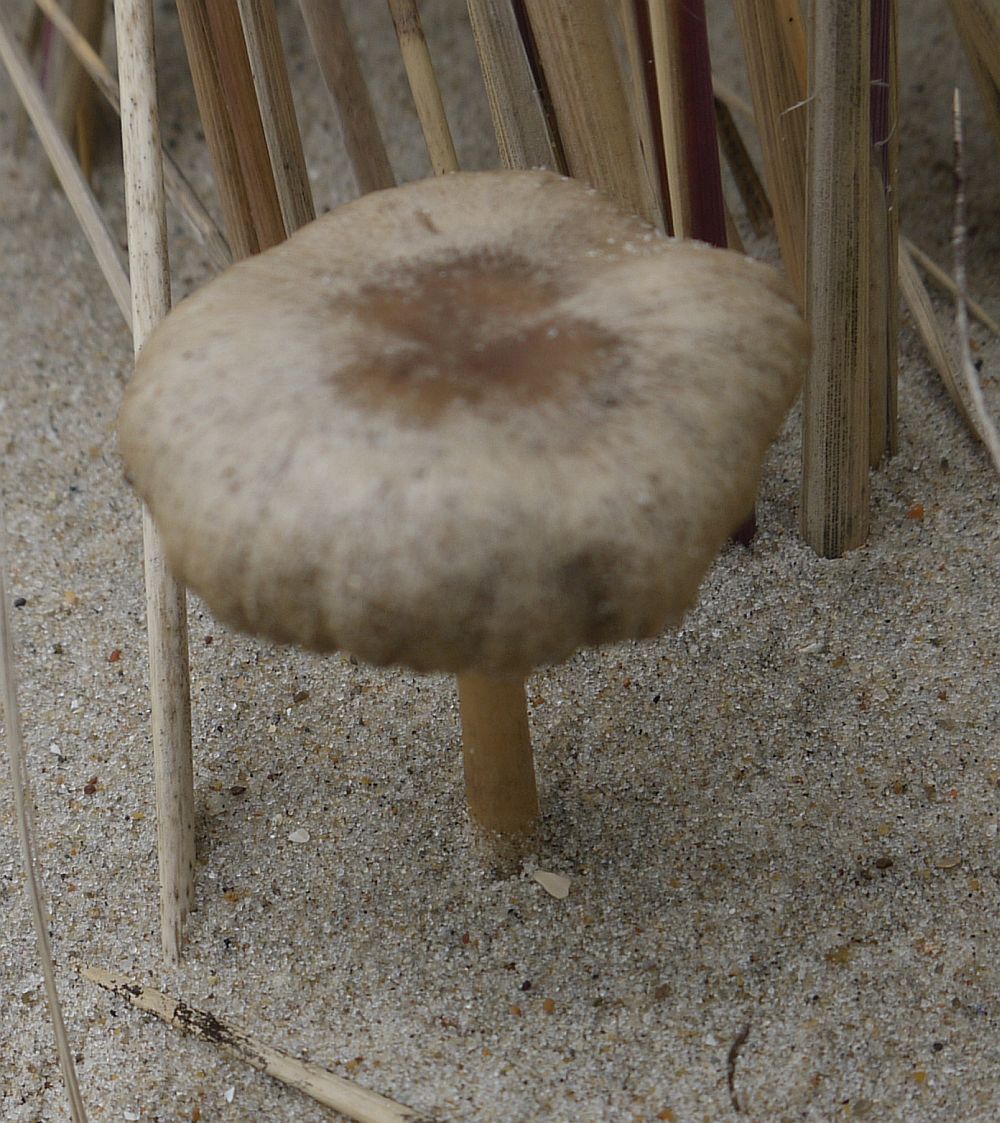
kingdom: Fungi
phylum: Basidiomycota
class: Agaricomycetes
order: Agaricales
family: Psathyrellaceae
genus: Psathyrella
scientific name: Psathyrella ammophila
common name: klit-mørkhat
